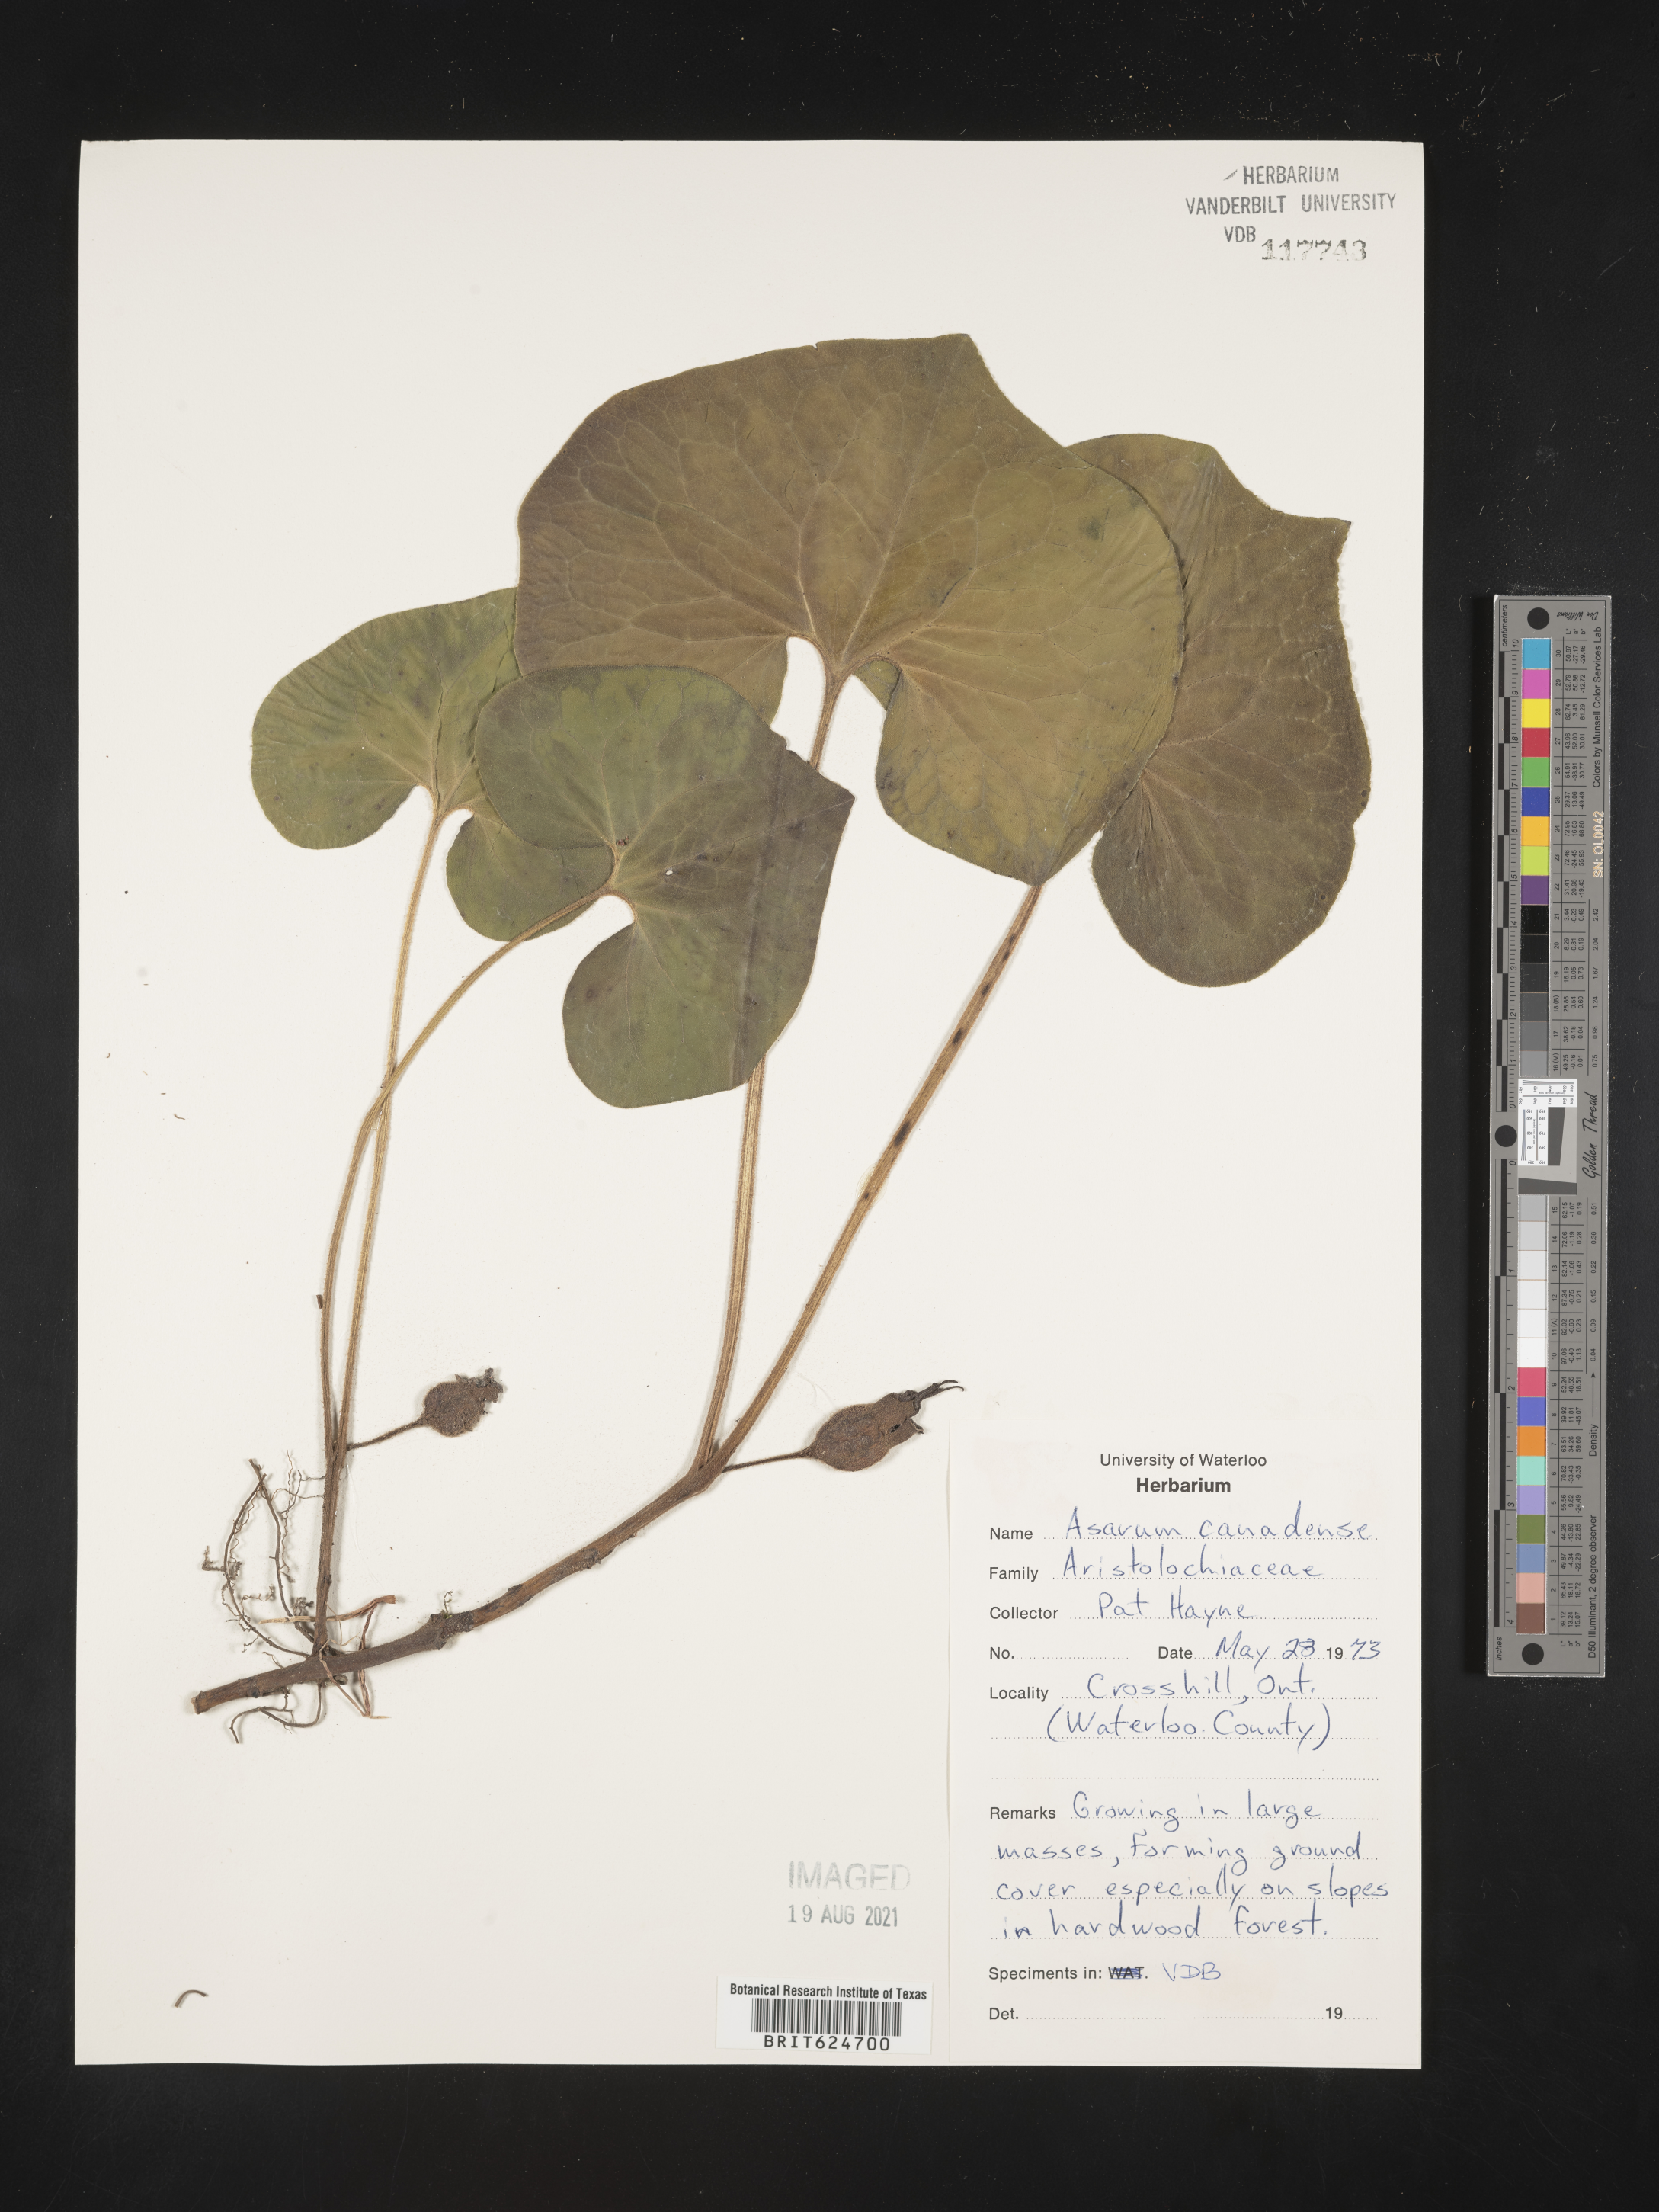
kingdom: Plantae
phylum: Tracheophyta
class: Magnoliopsida
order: Piperales
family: Aristolochiaceae
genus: Asarum
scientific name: Asarum canadense
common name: Wild ginger
